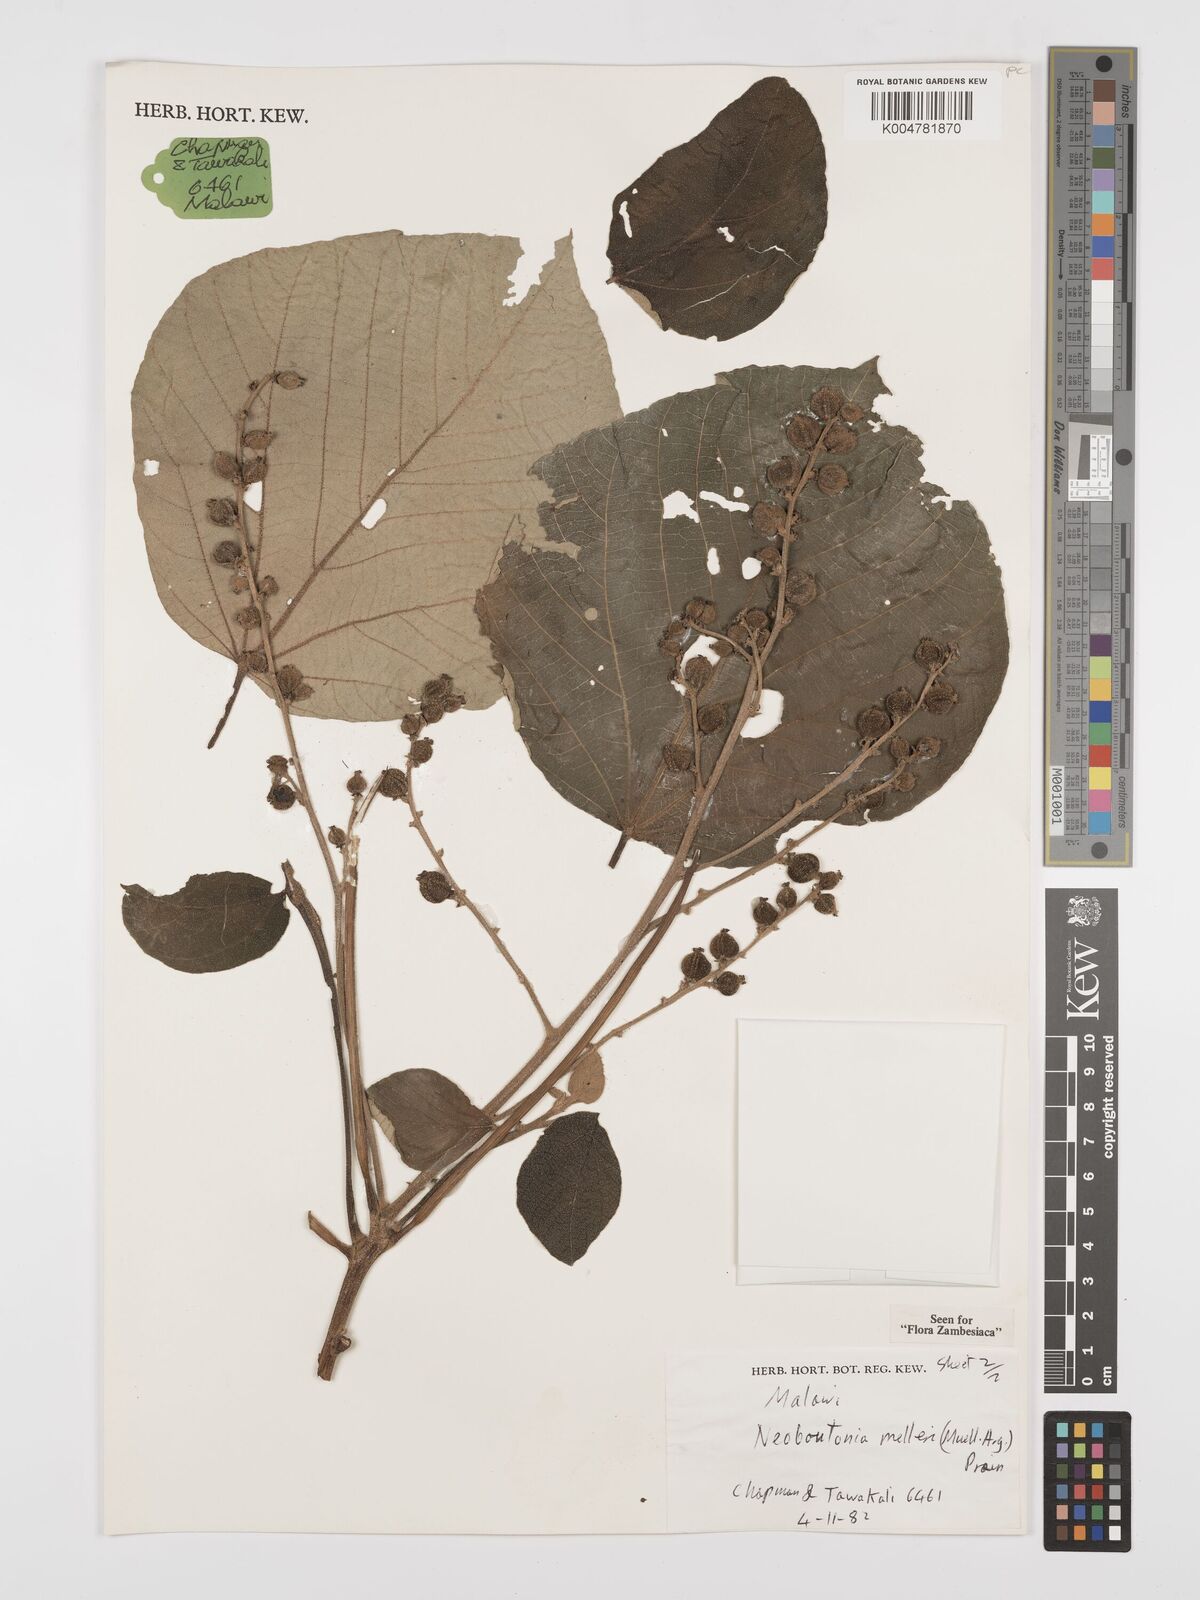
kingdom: Plantae
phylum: Tracheophyta
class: Magnoliopsida
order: Malpighiales
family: Euphorbiaceae
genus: Neoboutonia
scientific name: Neoboutonia melleri
